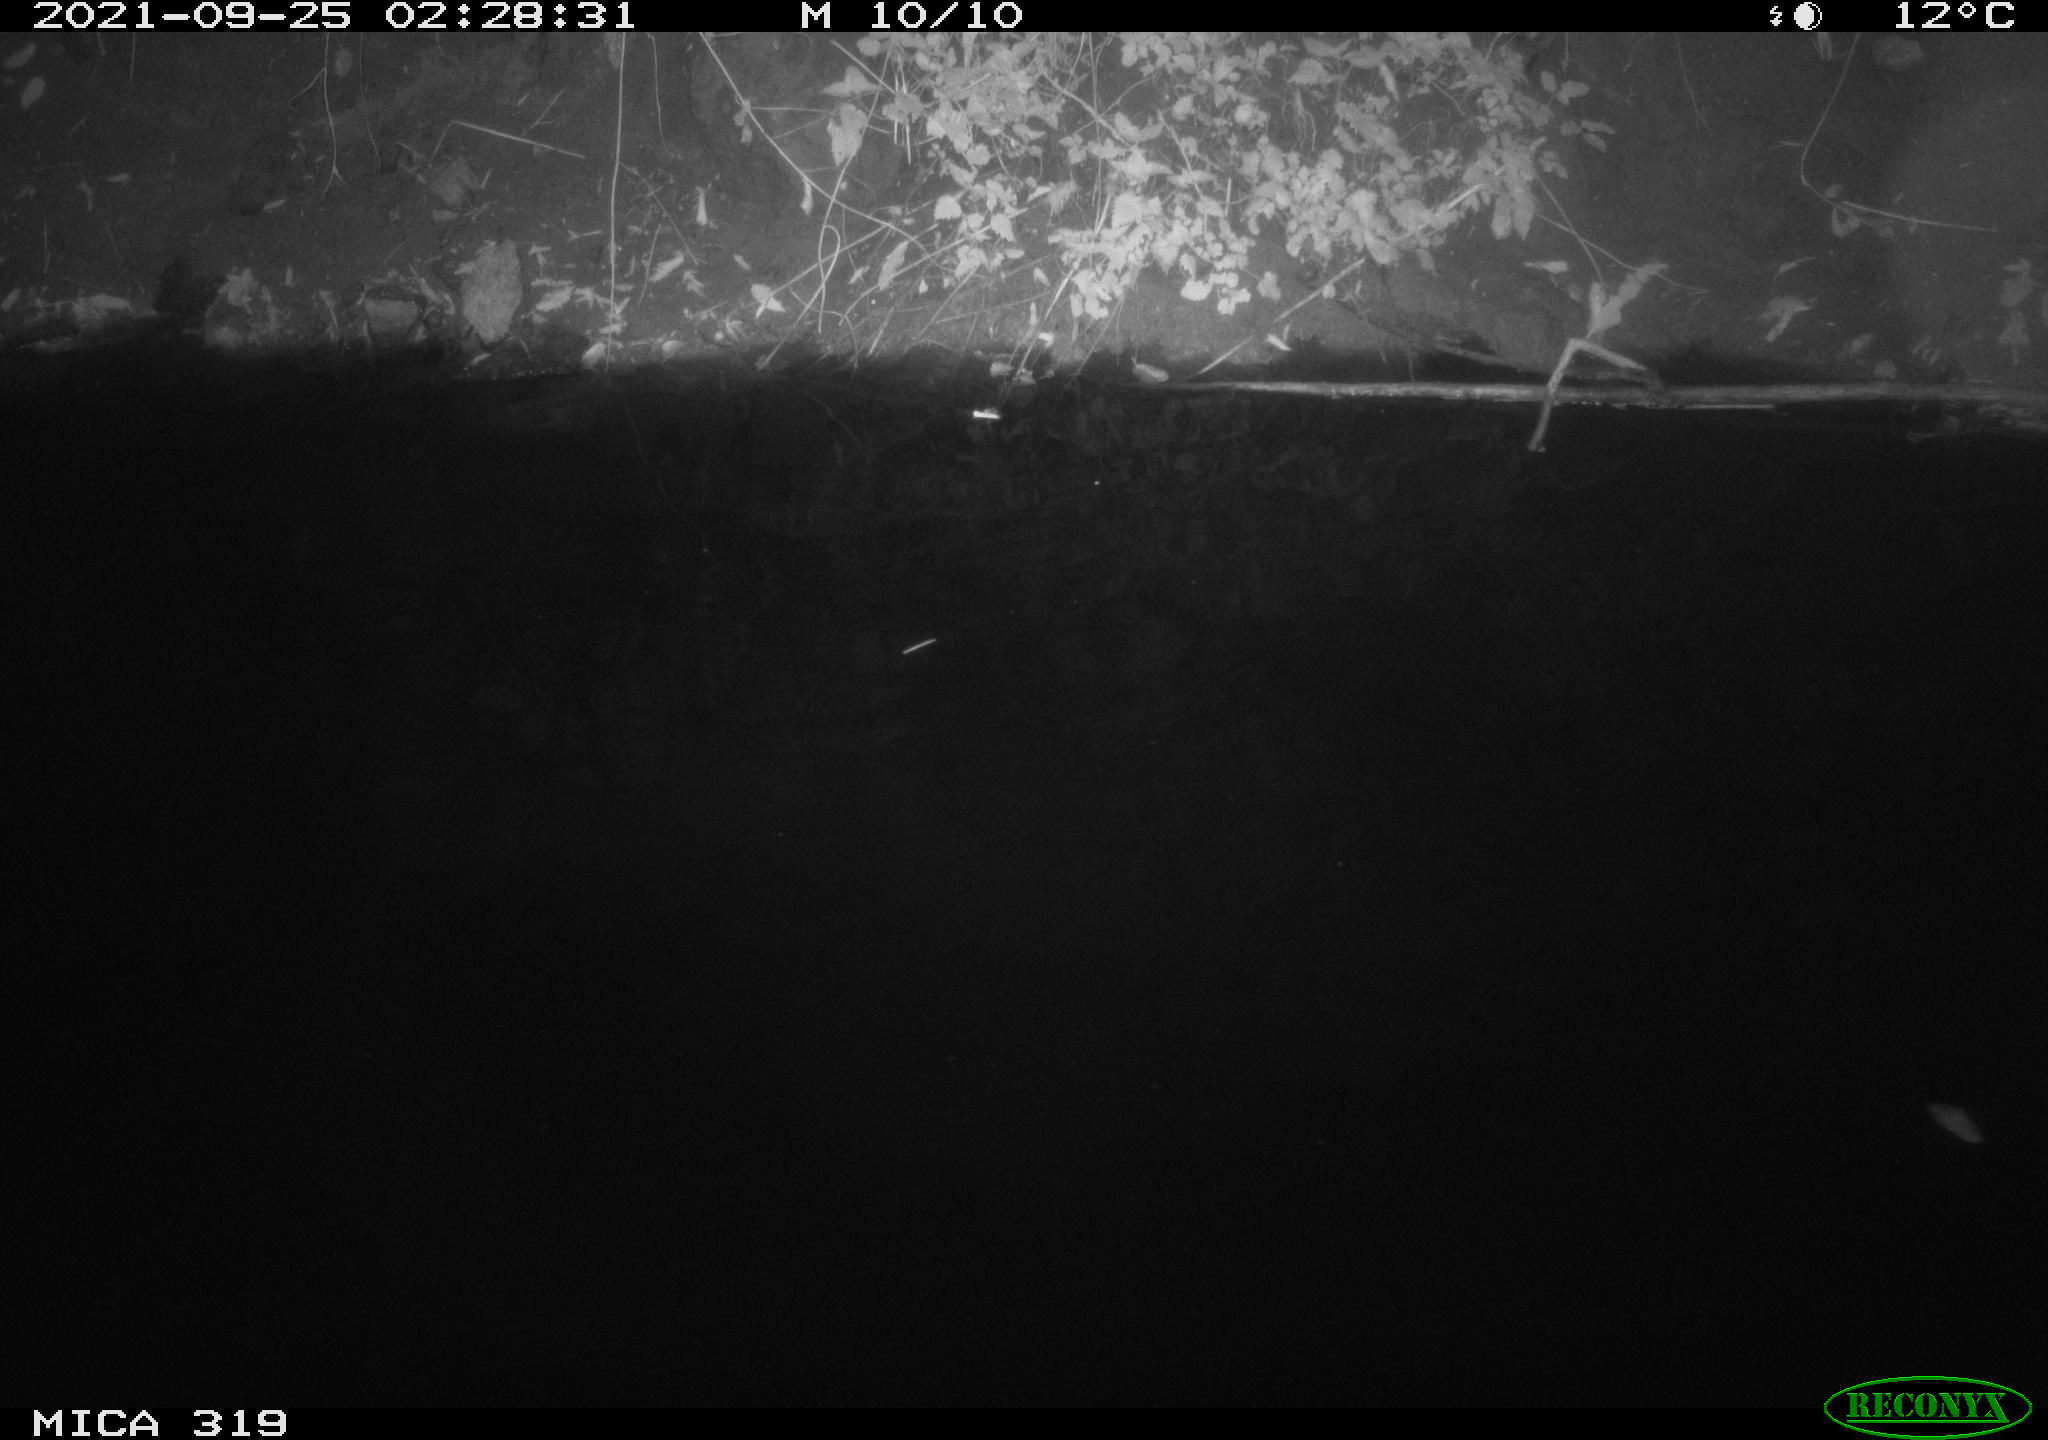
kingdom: Animalia
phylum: Chordata
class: Aves
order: Anseriformes
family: Anatidae
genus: Anas
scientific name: Anas platyrhynchos
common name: Mallard
